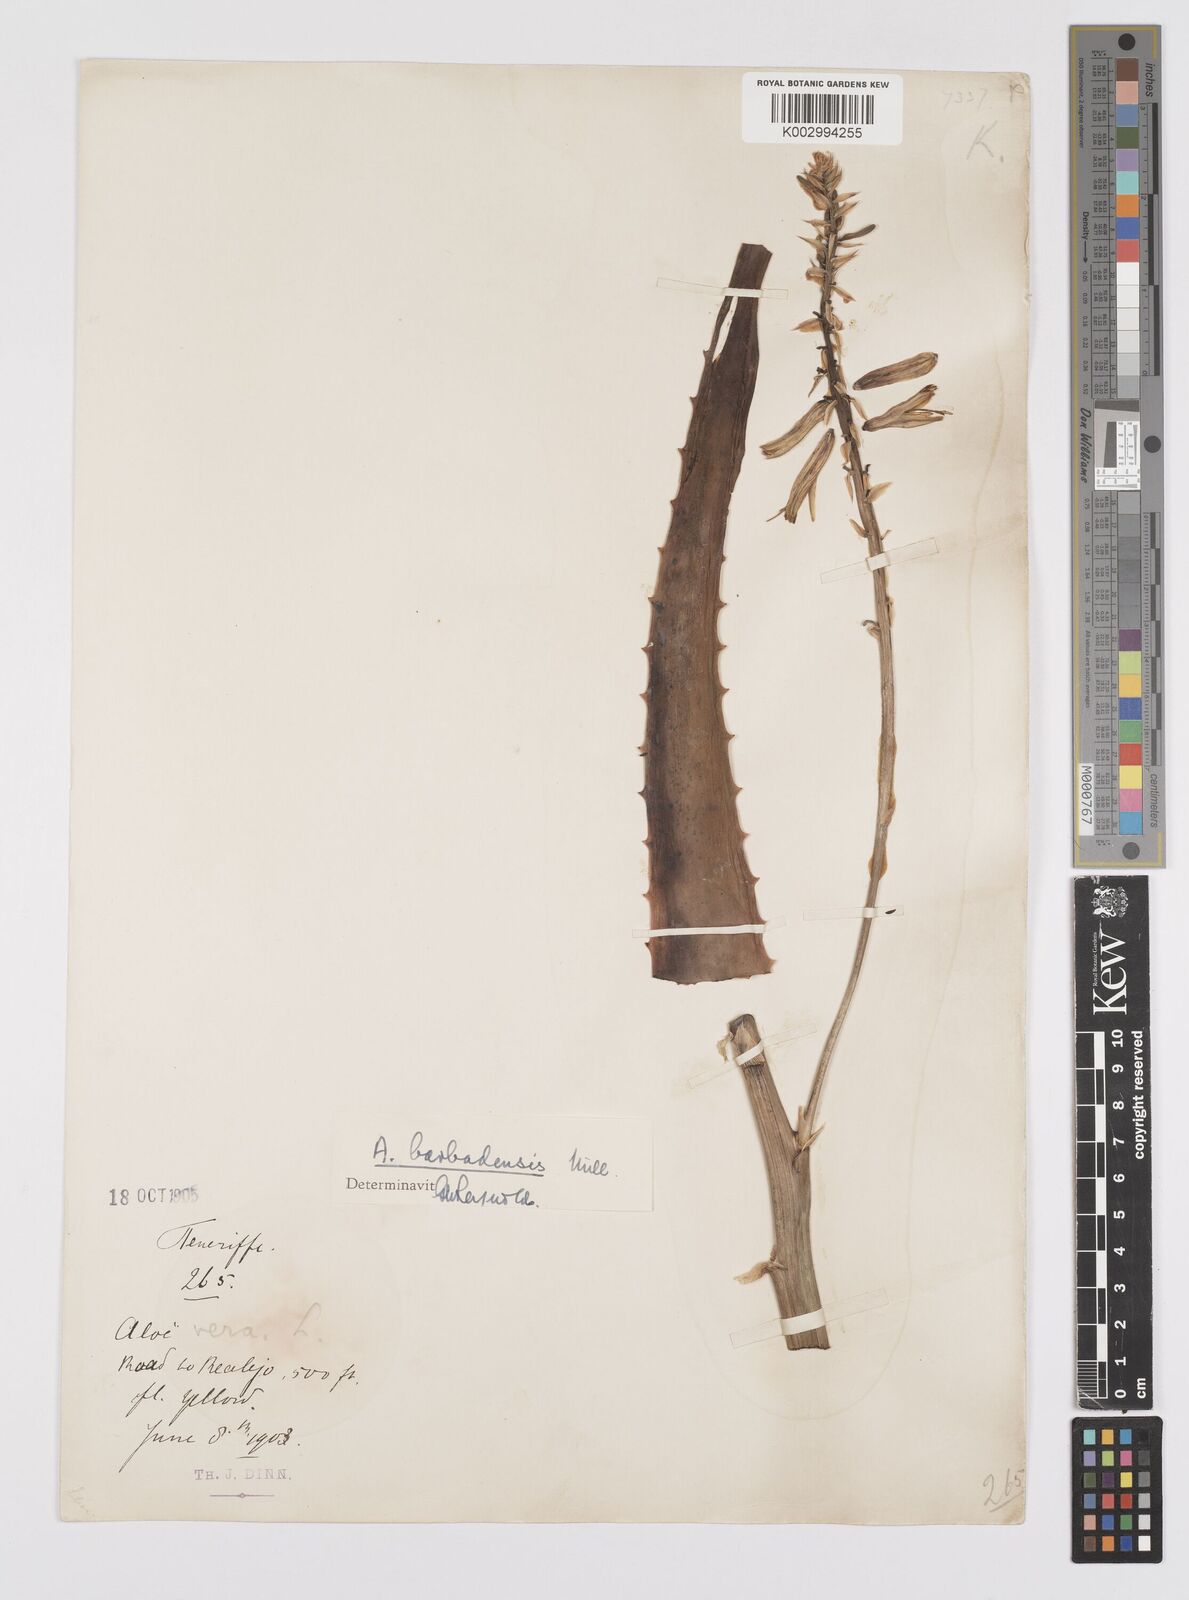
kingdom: Plantae
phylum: Tracheophyta
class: Liliopsida
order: Asparagales
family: Asphodelaceae
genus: Aloe
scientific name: Aloe vera
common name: Barbados aloe
